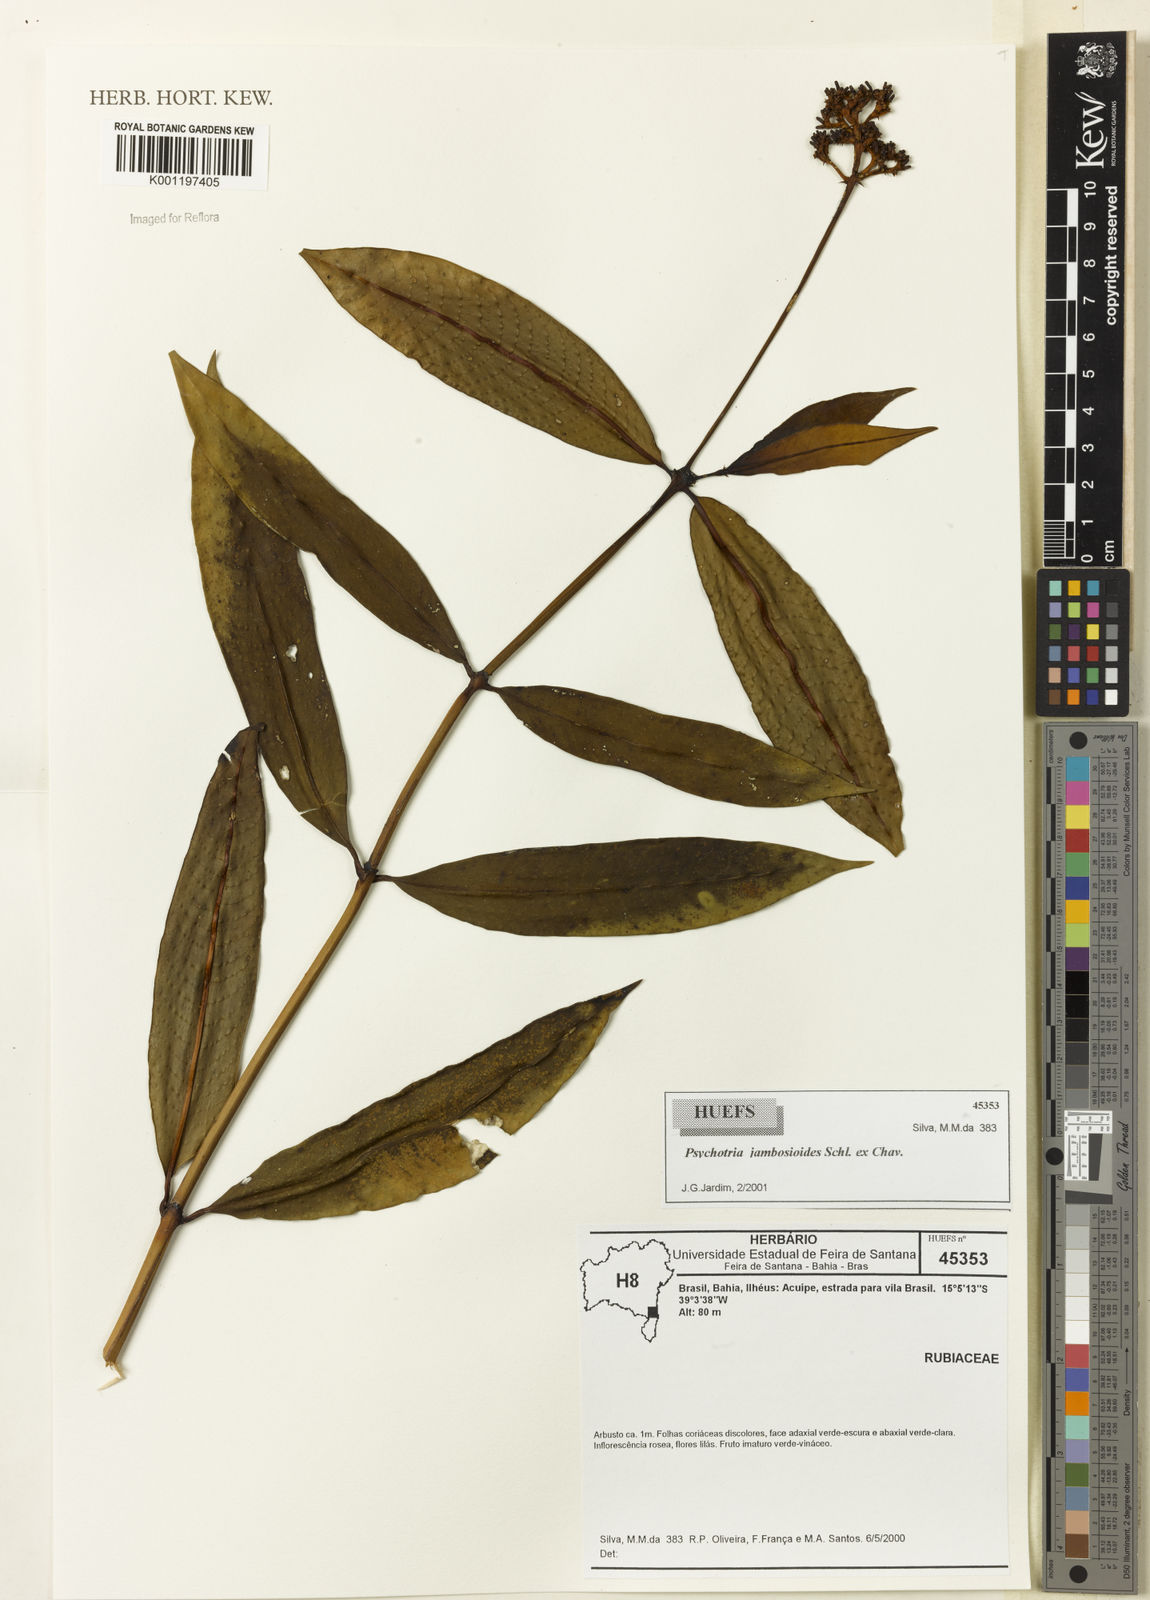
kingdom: Plantae
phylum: Tracheophyta
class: Magnoliopsida
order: Gentianales
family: Rubiaceae
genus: Palicourea
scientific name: Palicourea jambosioides
